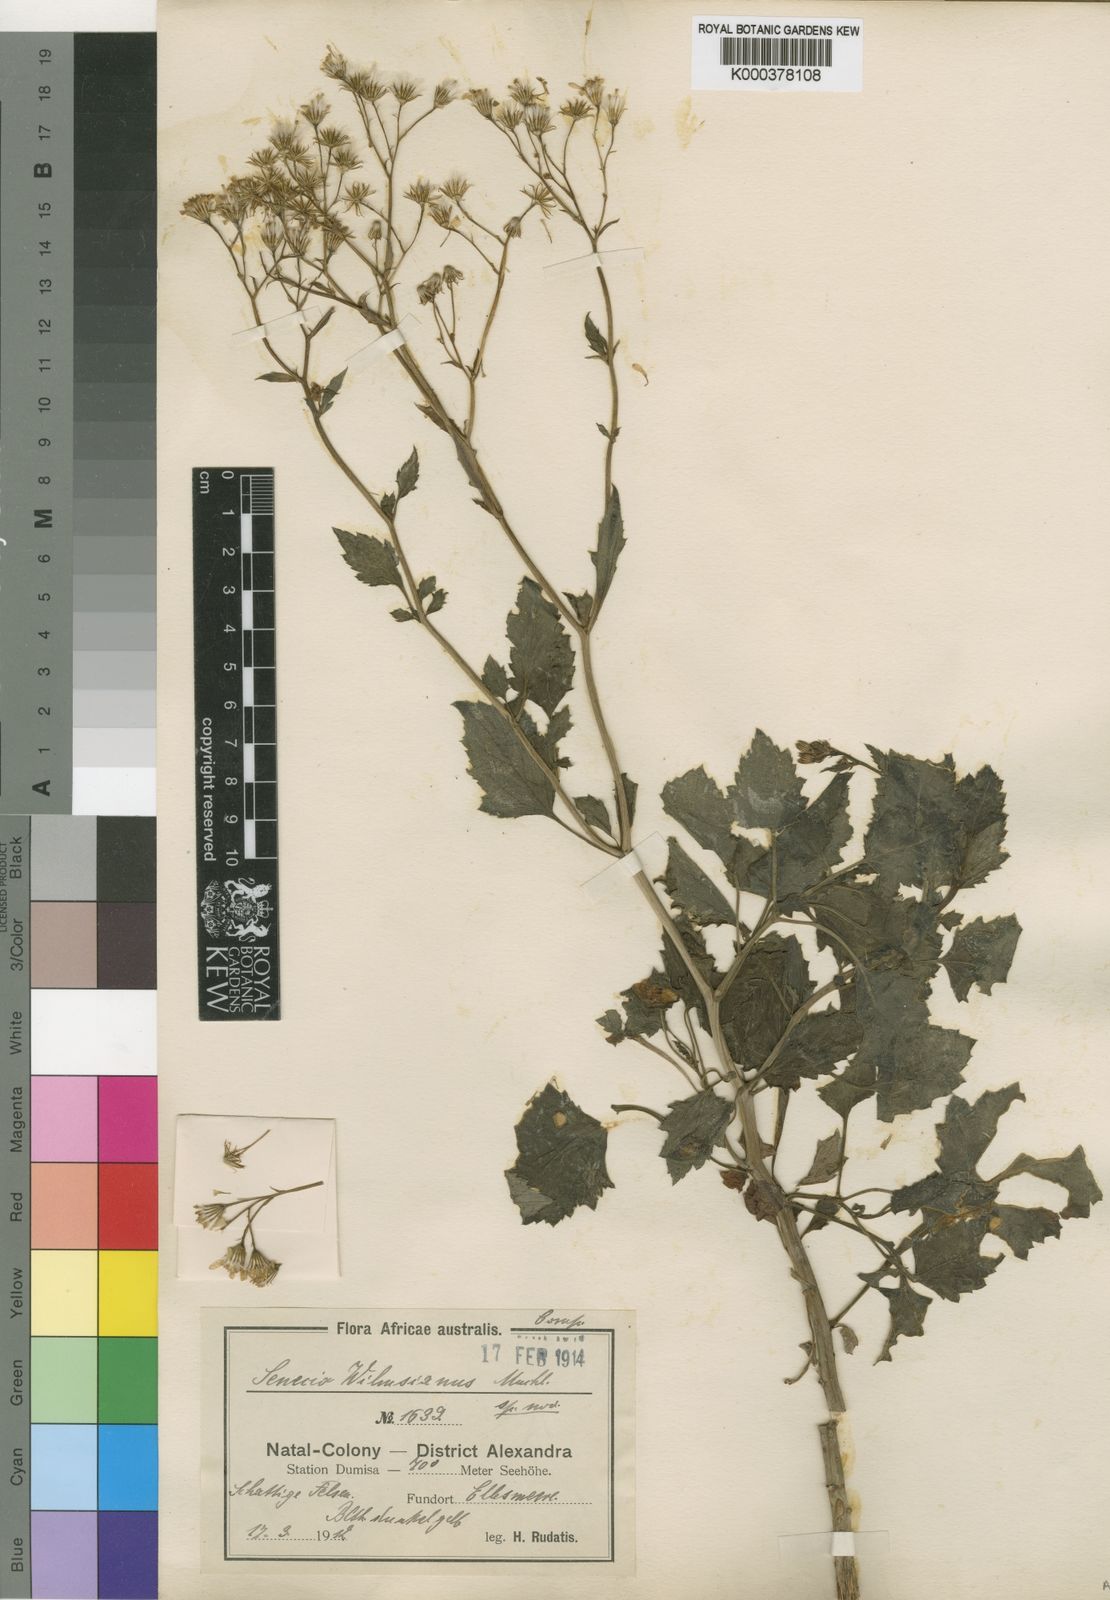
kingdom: Plantae
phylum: Tracheophyta
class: Magnoliopsida
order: Asterales
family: Asteraceae
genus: Senecio
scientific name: Senecio
